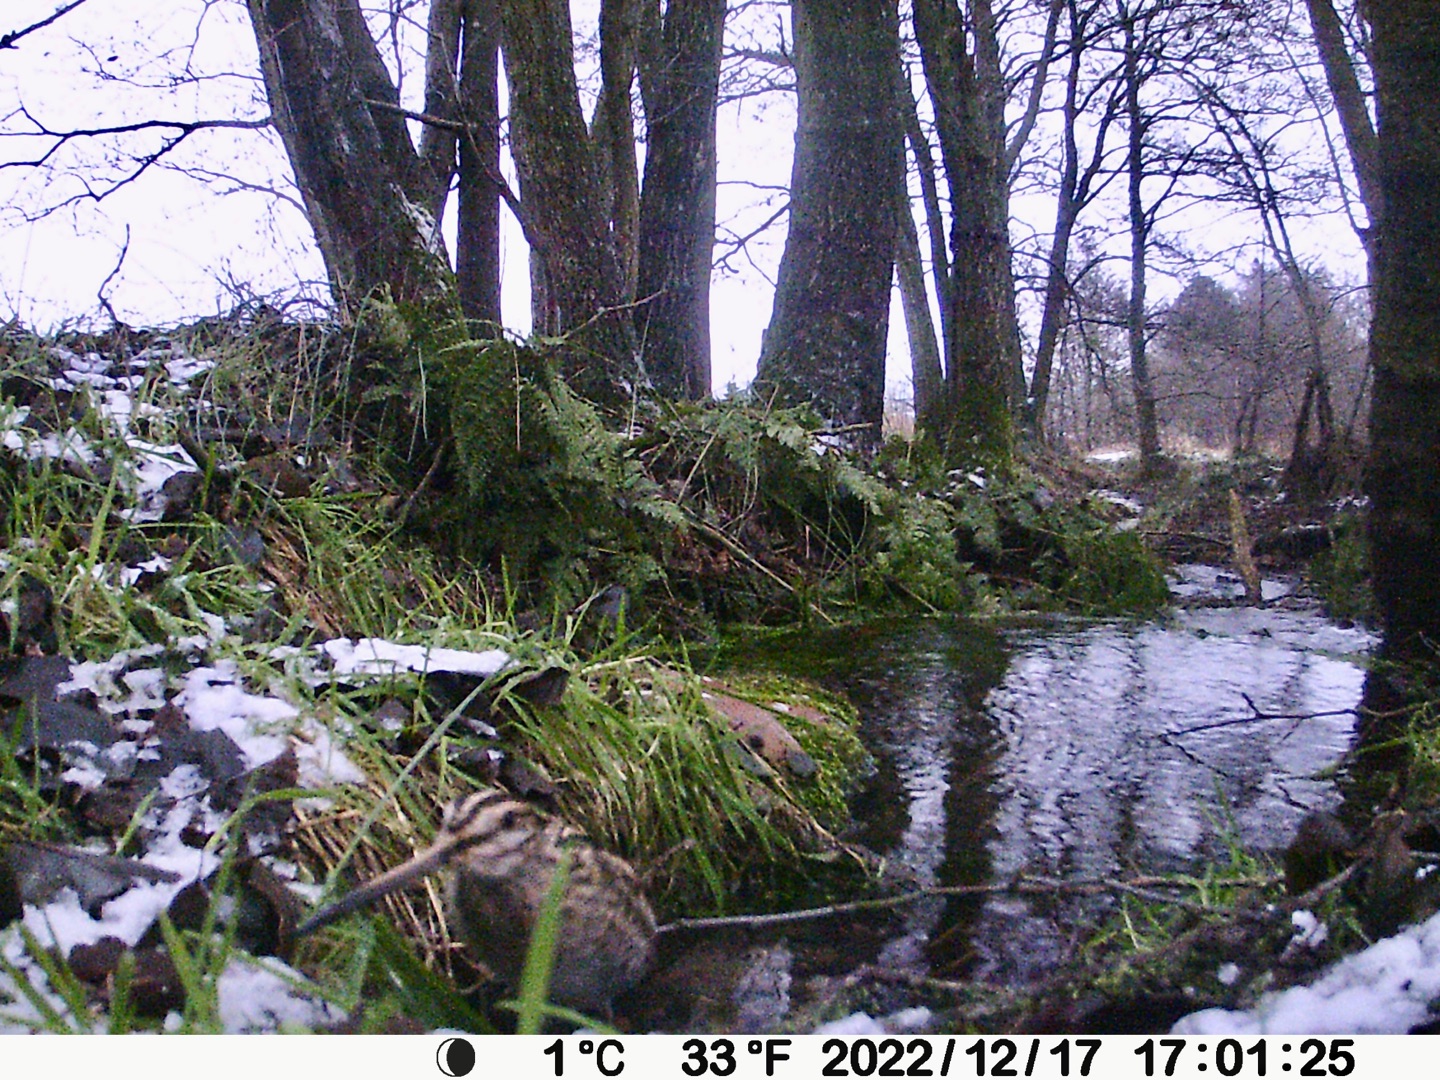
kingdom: Animalia
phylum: Chordata
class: Aves
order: Charadriiformes
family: Scolopacidae
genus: Gallinago
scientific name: Gallinago gallinago
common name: Dobbeltbekkasin
